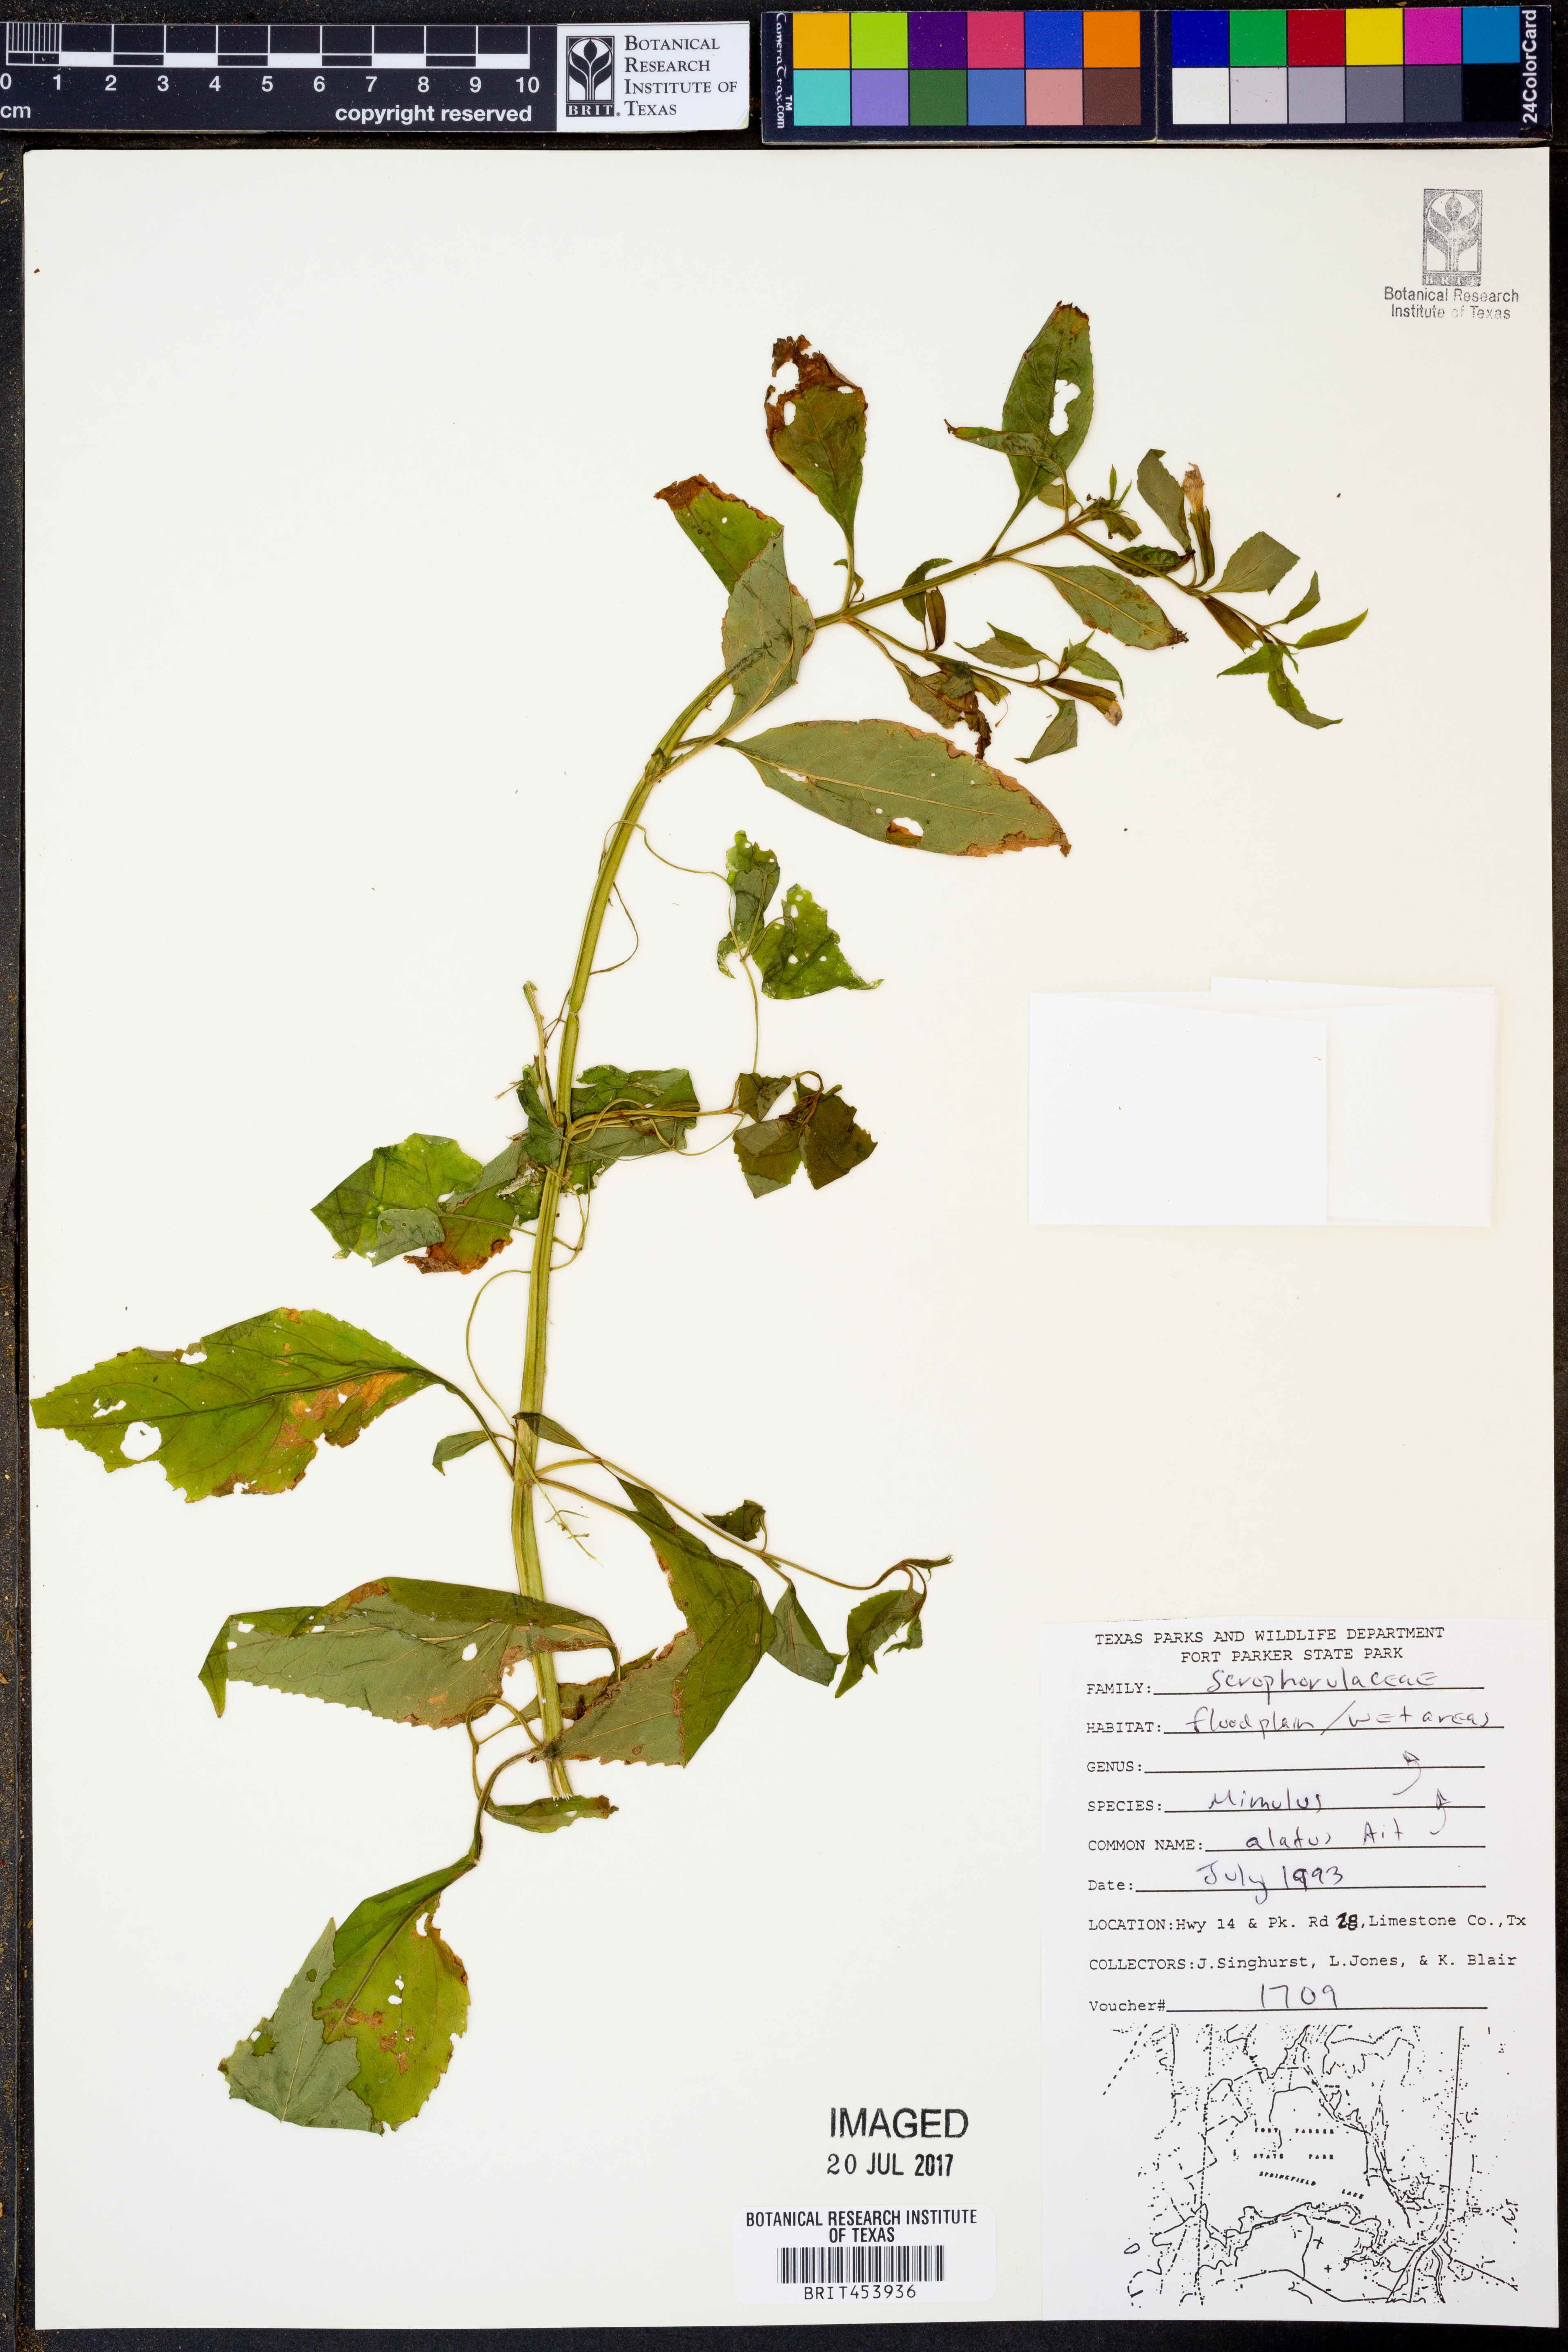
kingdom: Plantae
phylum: Tracheophyta
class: Magnoliopsida
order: Lamiales
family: Phrymaceae
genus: Mimulus
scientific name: Mimulus alatus
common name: Sharp-wing monkey-flower
